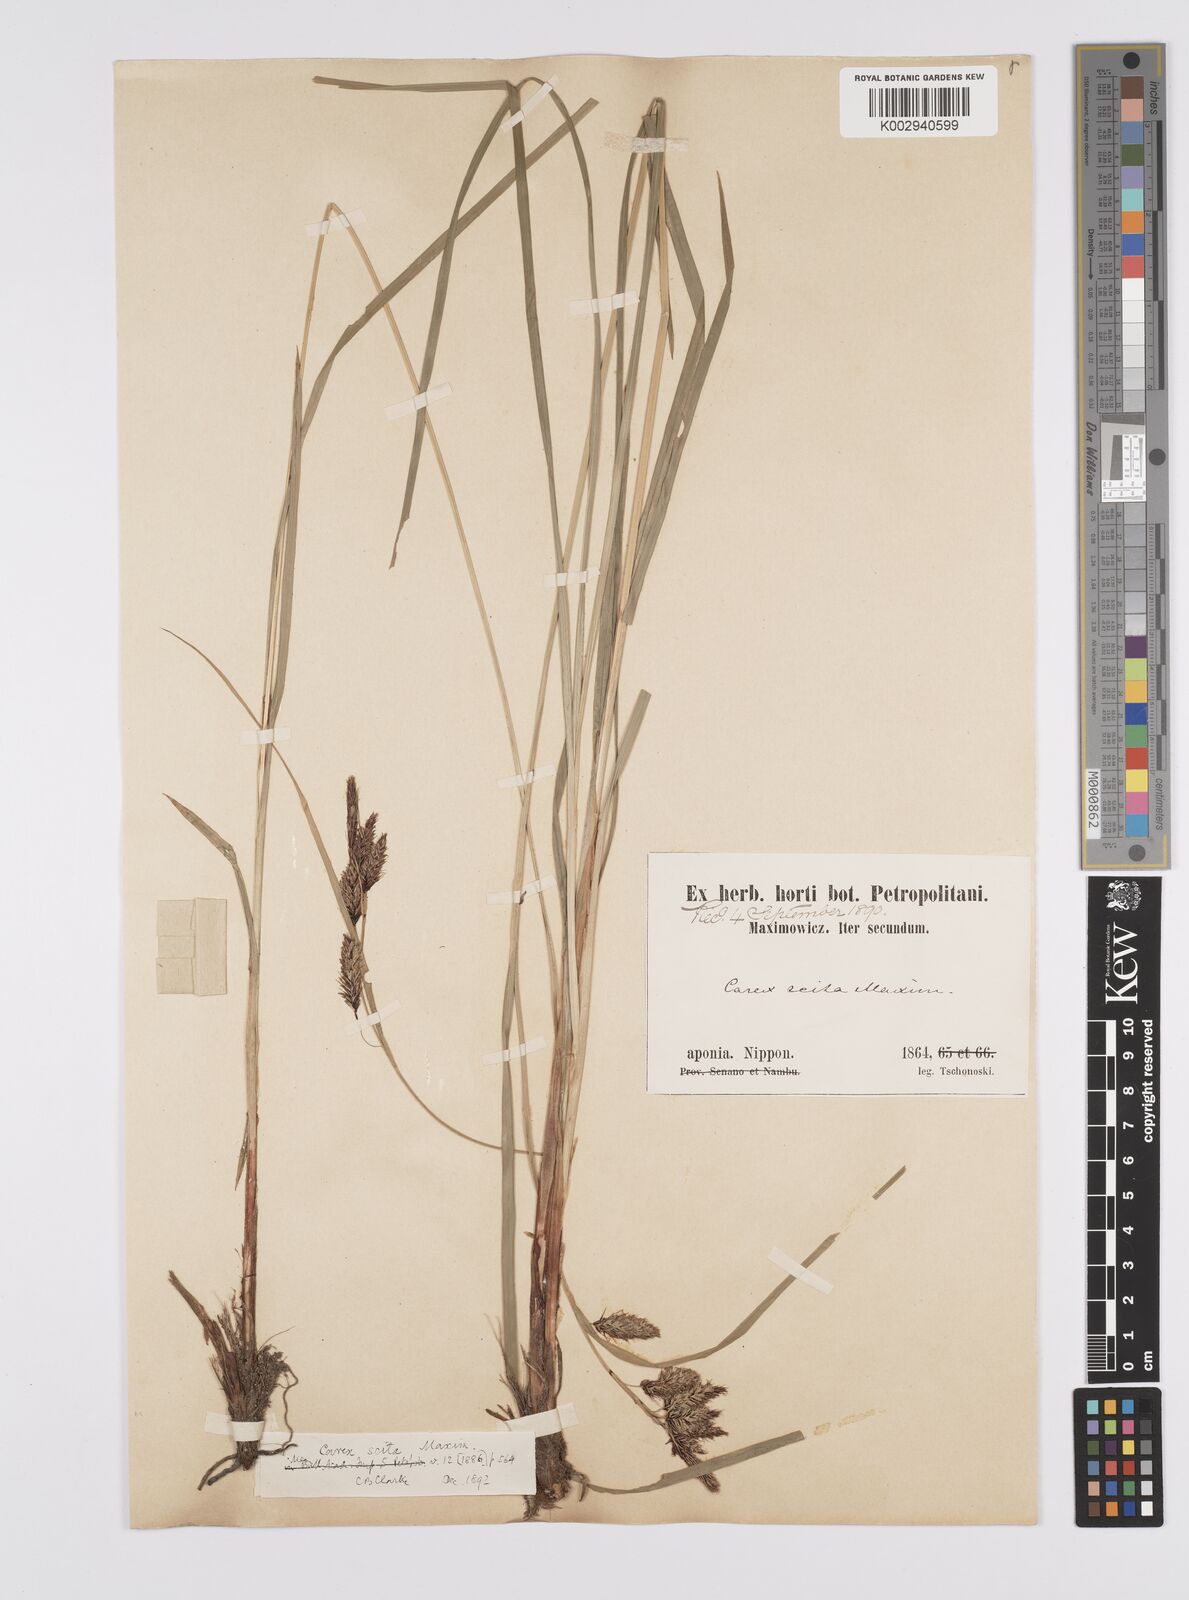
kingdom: Plantae
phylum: Tracheophyta
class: Liliopsida
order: Poales
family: Cyperaceae
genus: Carex
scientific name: Carex scita
